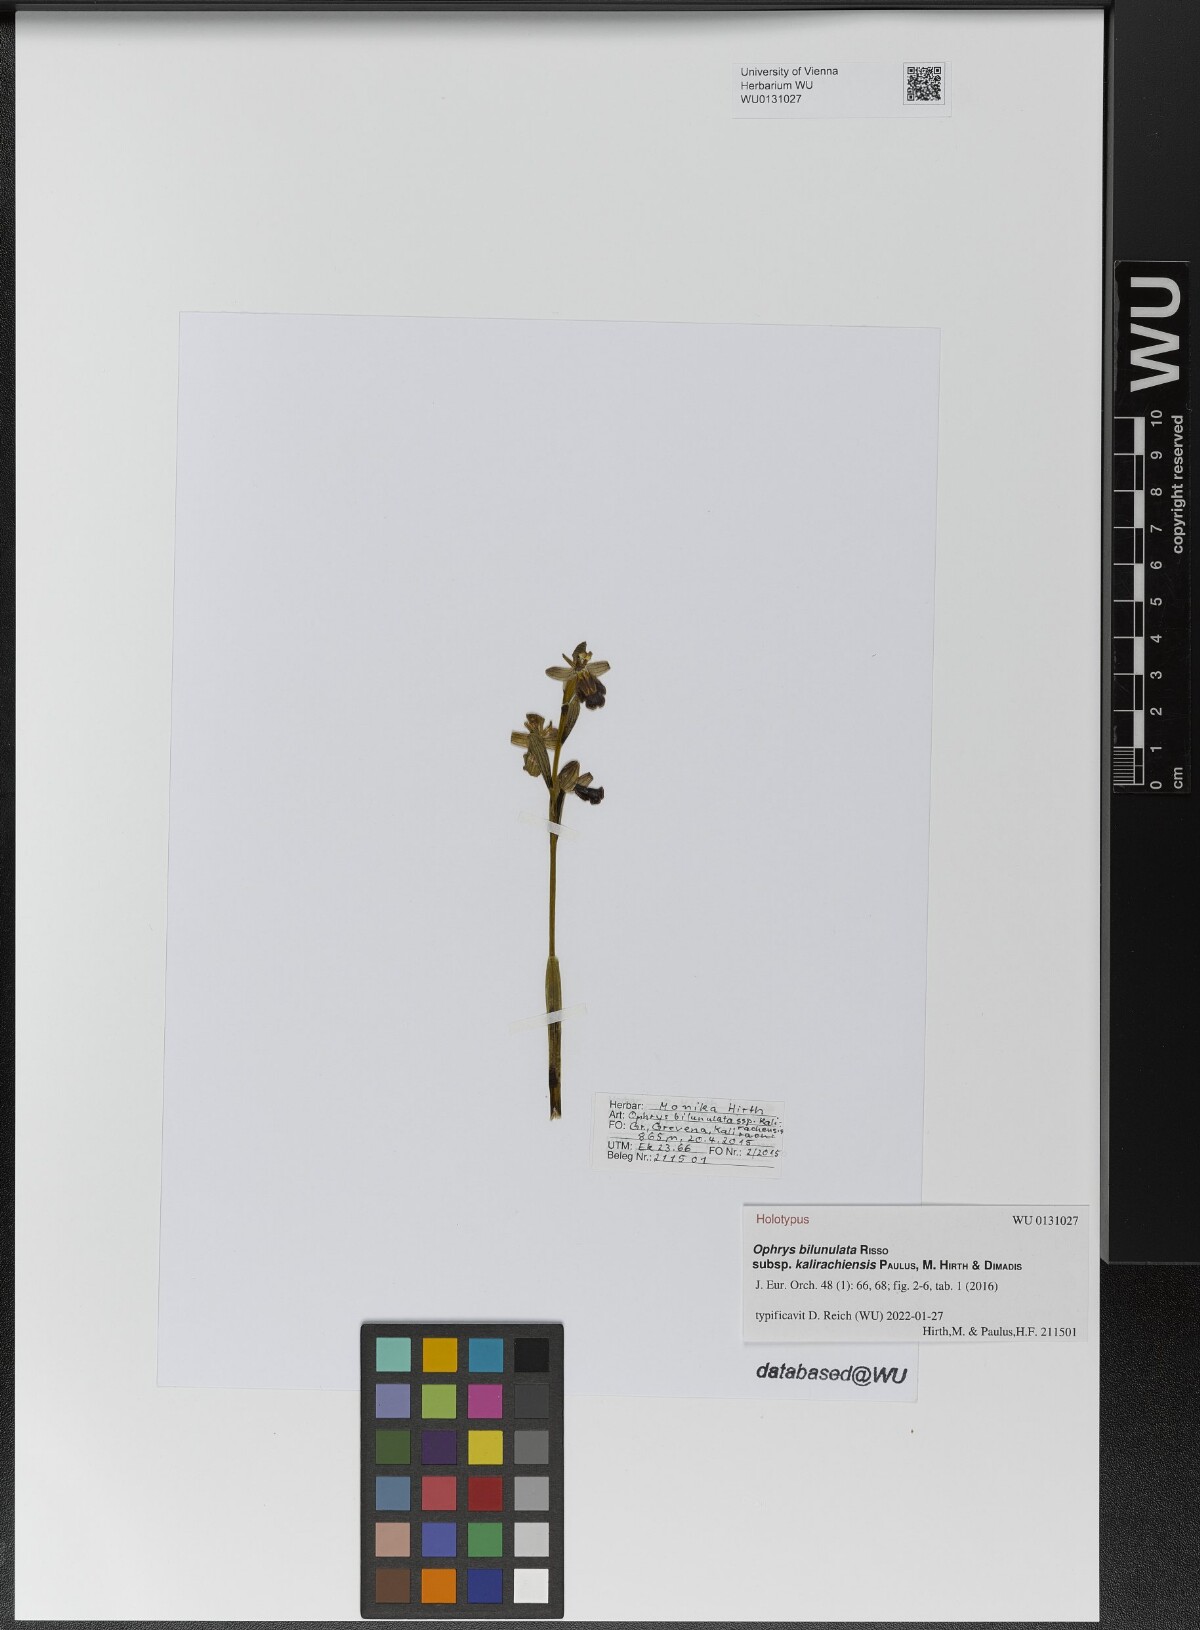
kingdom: Plantae
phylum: Tracheophyta
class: Liliopsida
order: Asparagales
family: Orchidaceae
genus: Ophrys
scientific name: Ophrys fusca
